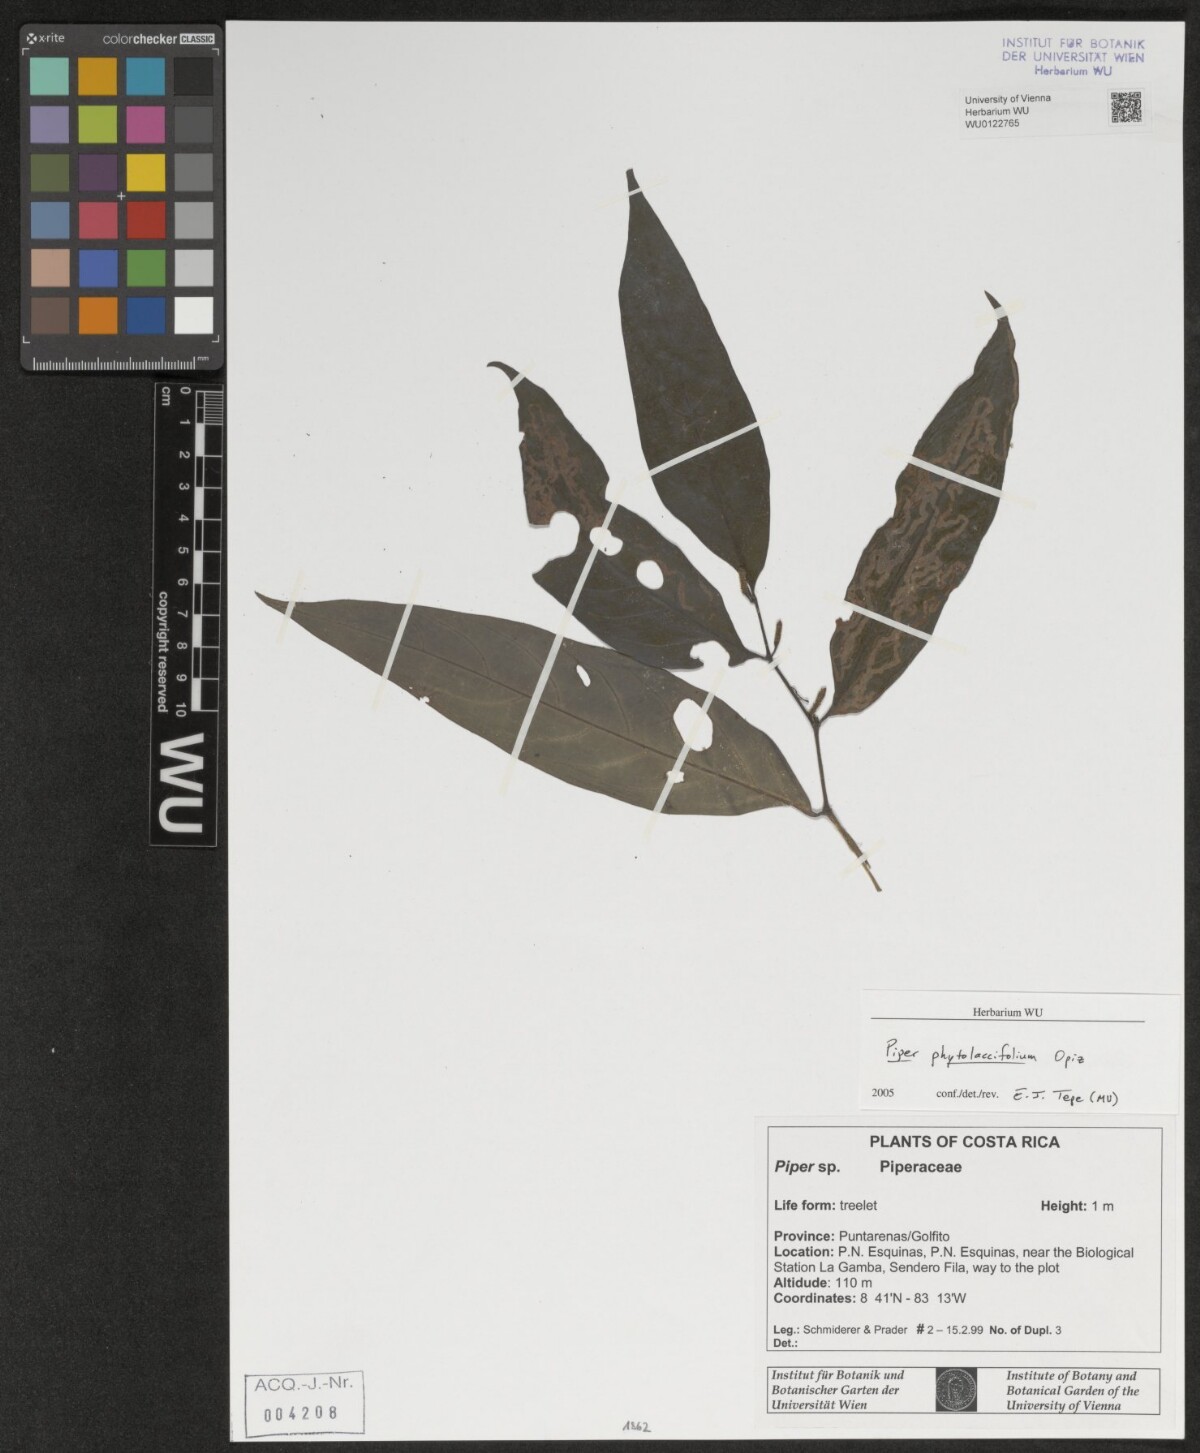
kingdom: Plantae
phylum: Tracheophyta
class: Magnoliopsida
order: Piperales
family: Piperaceae
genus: Piper
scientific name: Piper phytolaccifolium
